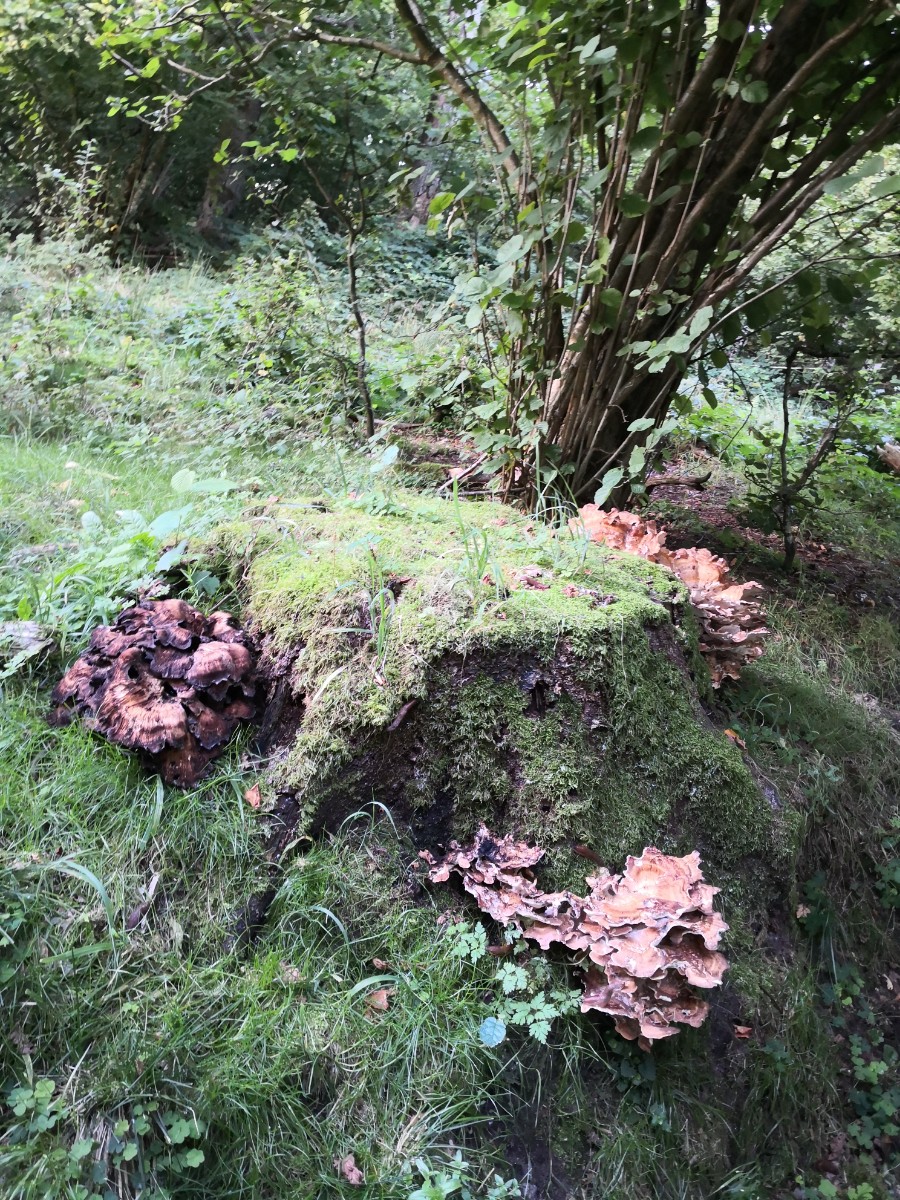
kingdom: Fungi
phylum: Basidiomycota
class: Agaricomycetes
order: Polyporales
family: Meripilaceae
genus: Meripilus
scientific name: Meripilus giganteus
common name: kæmpeporesvamp
